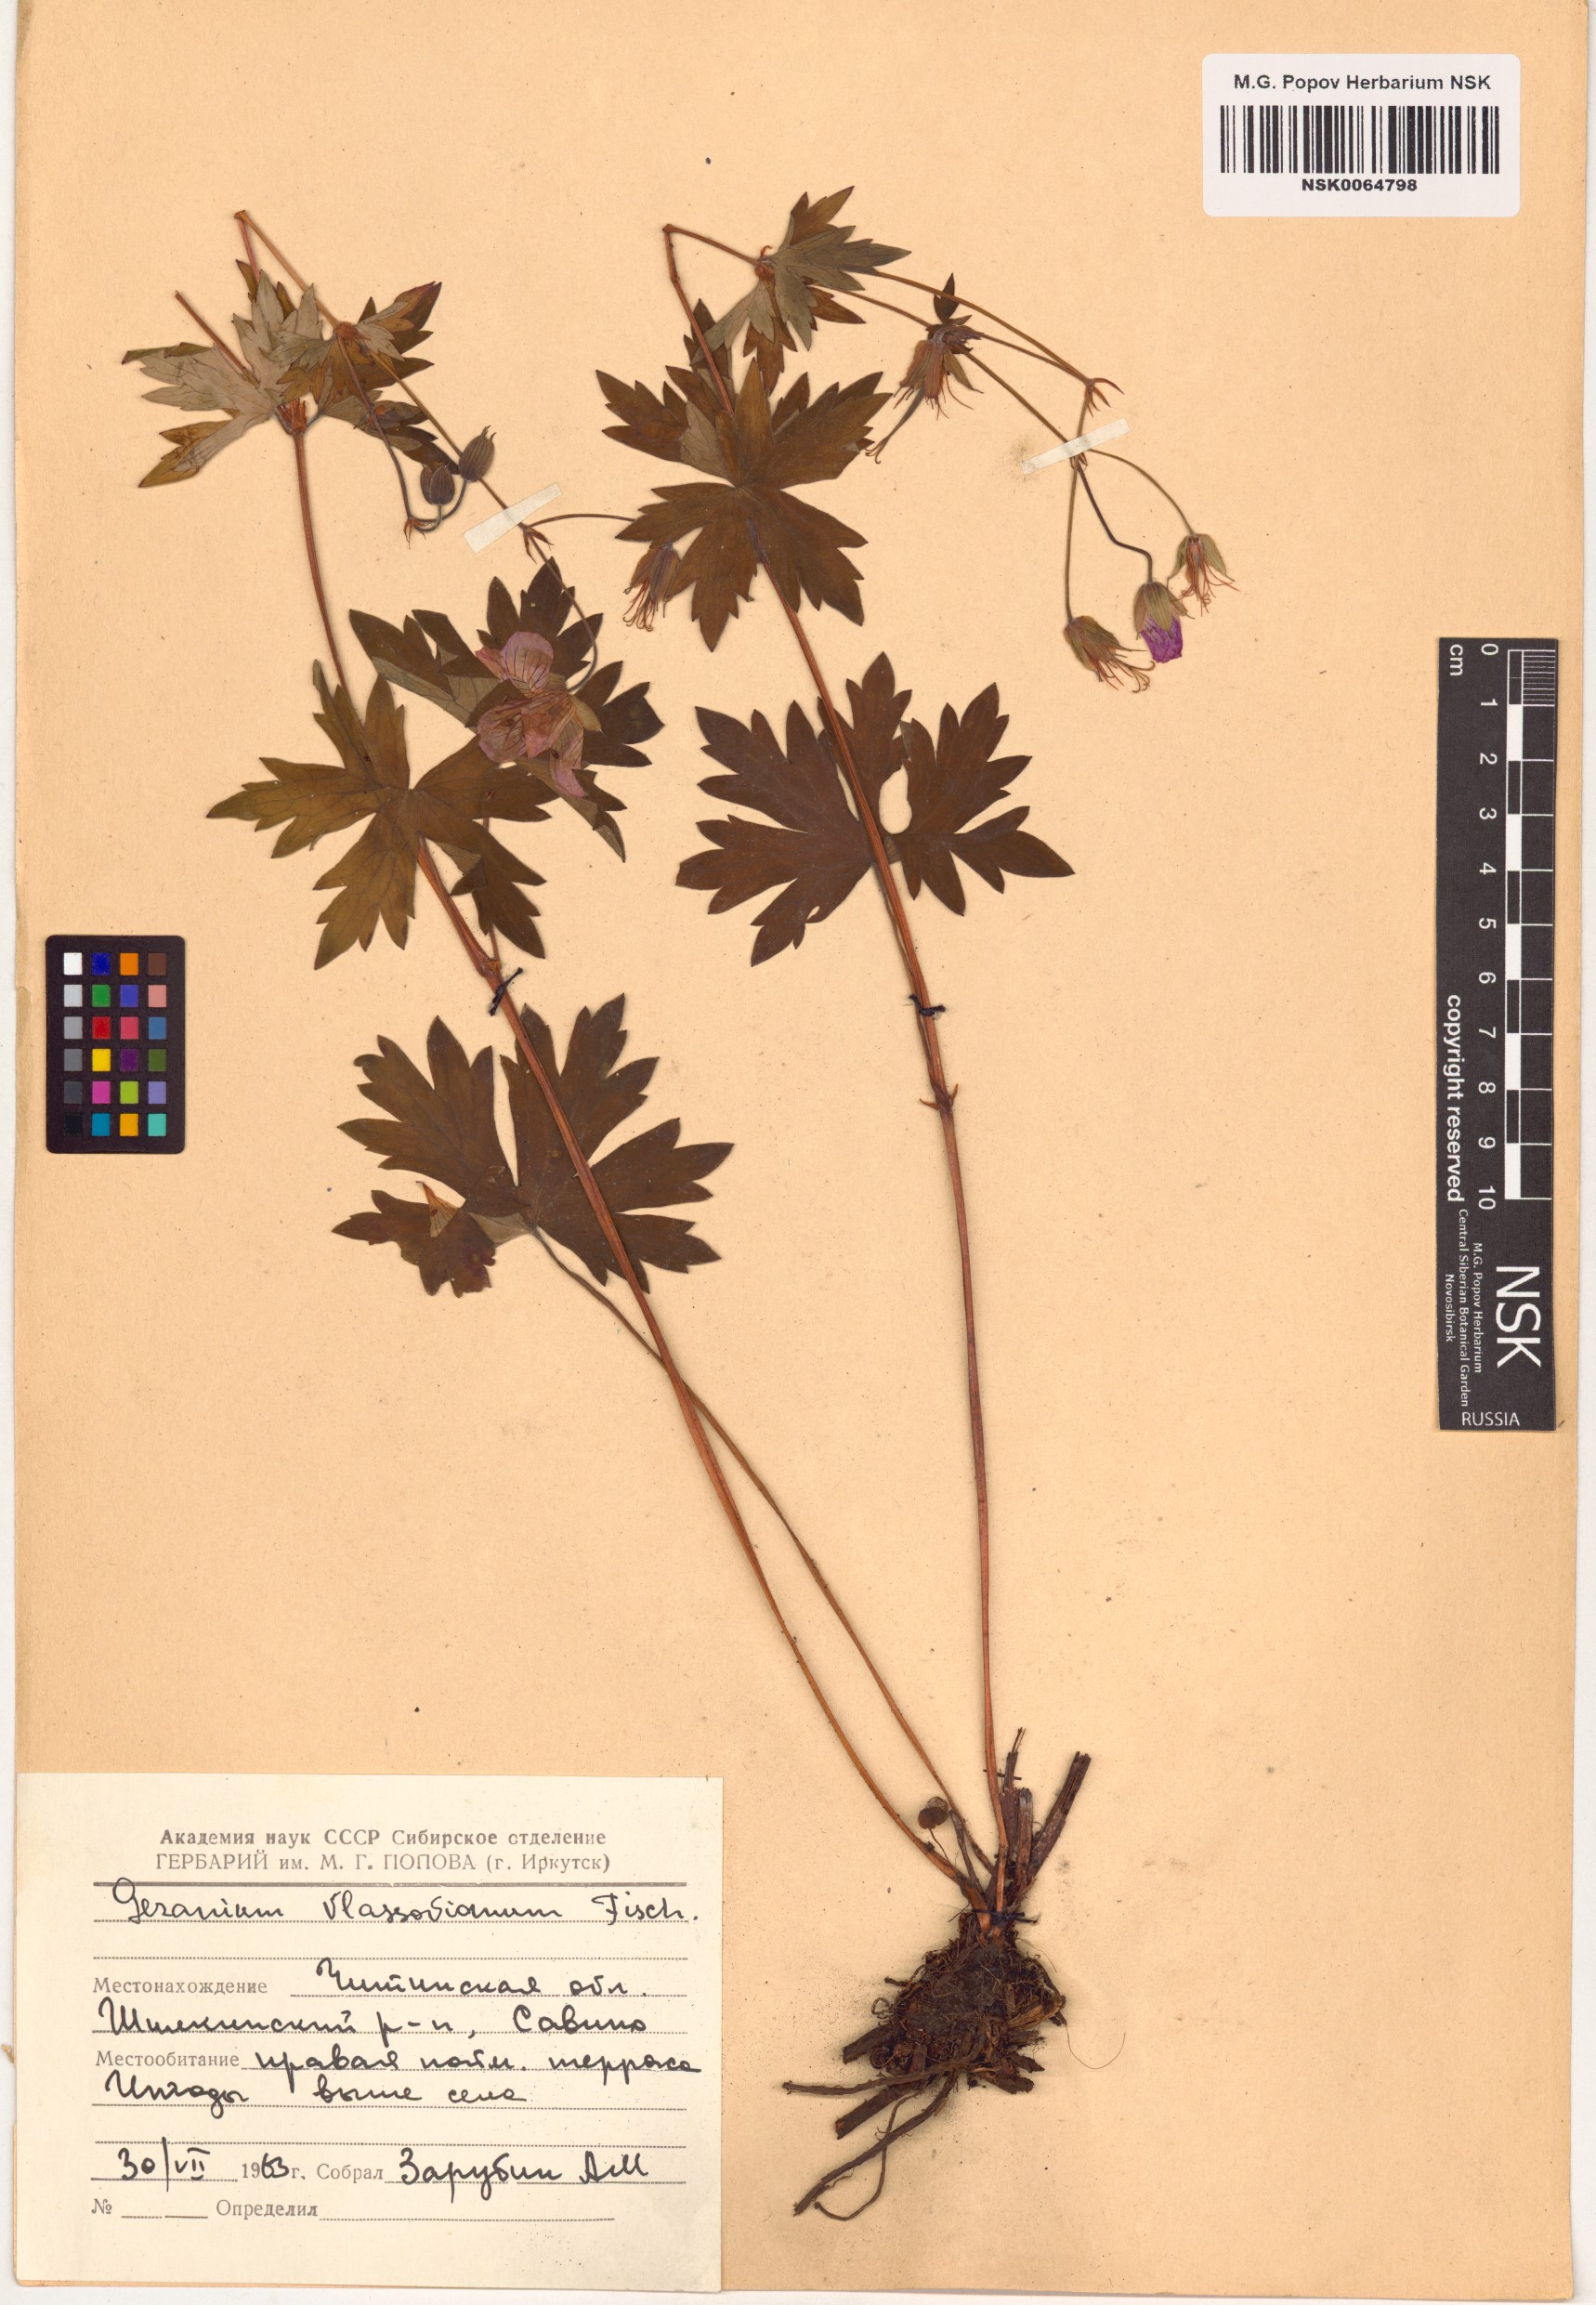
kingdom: Plantae
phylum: Tracheophyta
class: Magnoliopsida
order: Geraniales
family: Geraniaceae
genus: Geranium
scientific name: Geranium wlassovianum
